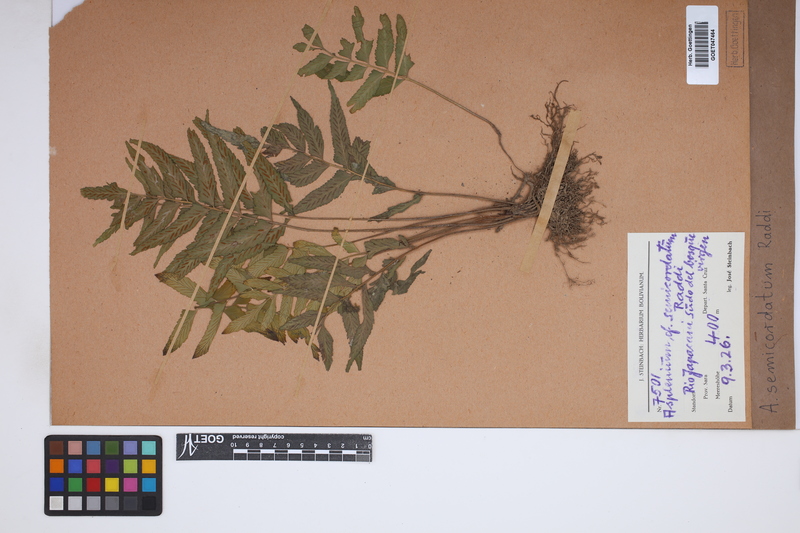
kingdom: Plantae
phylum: Tracheophyta
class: Polypodiopsida
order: Polypodiales
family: Aspleniaceae
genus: Asplenium
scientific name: Asplenium auriculatum
